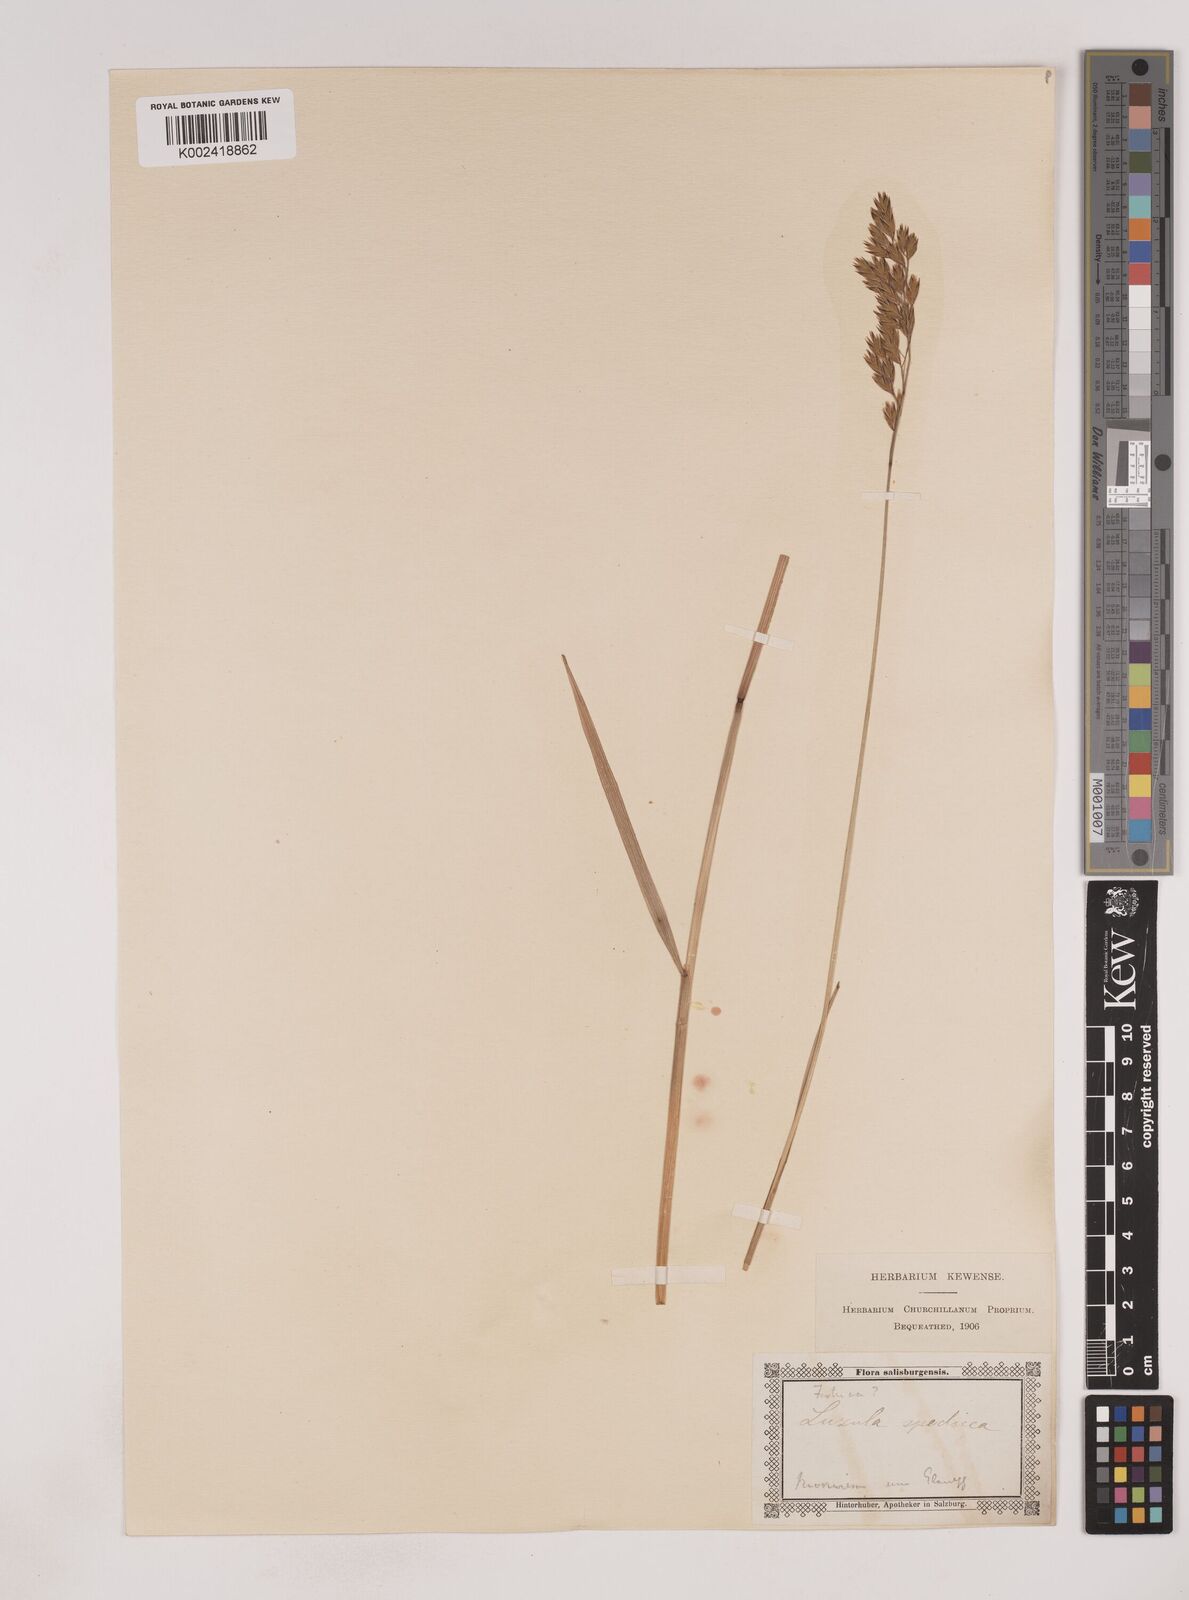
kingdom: Plantae
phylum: Tracheophyta
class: Liliopsida
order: Poales
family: Poaceae
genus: Patzkea
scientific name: Patzkea paniculata
